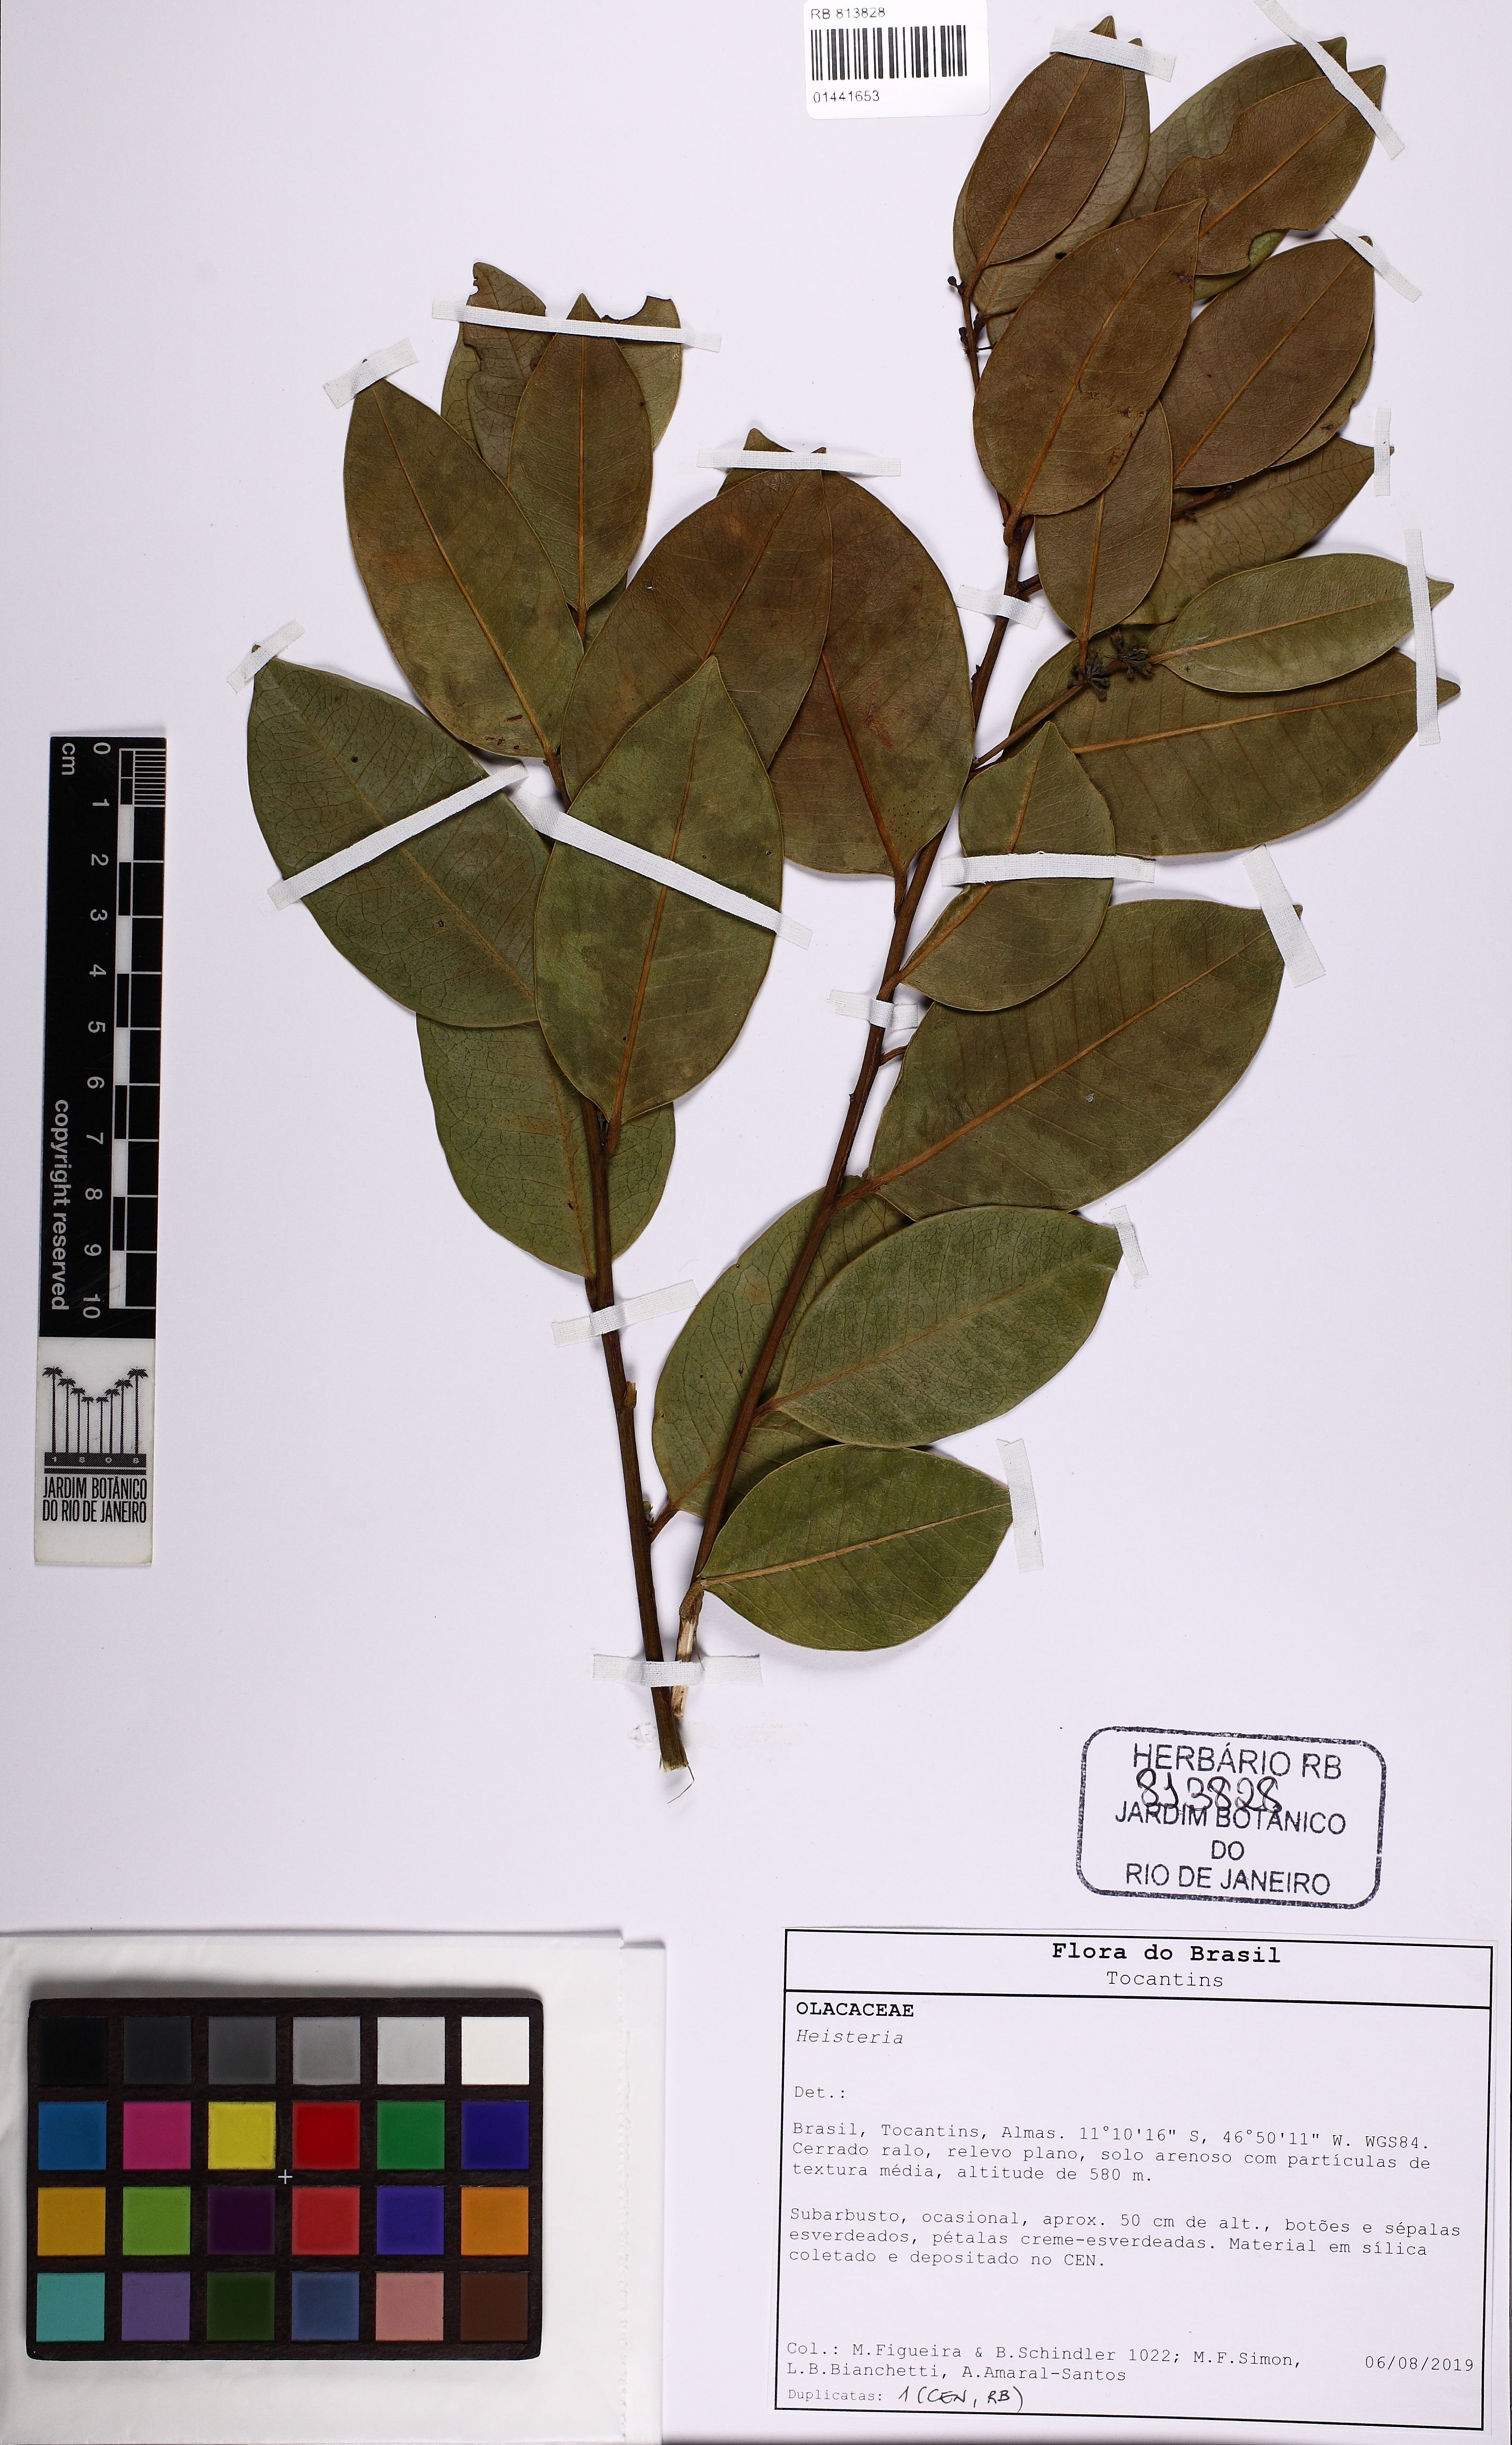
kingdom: Plantae
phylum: Tracheophyta
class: Magnoliopsida
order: Santalales
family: Erythropalaceae
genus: Heisteria
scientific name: Heisteria
